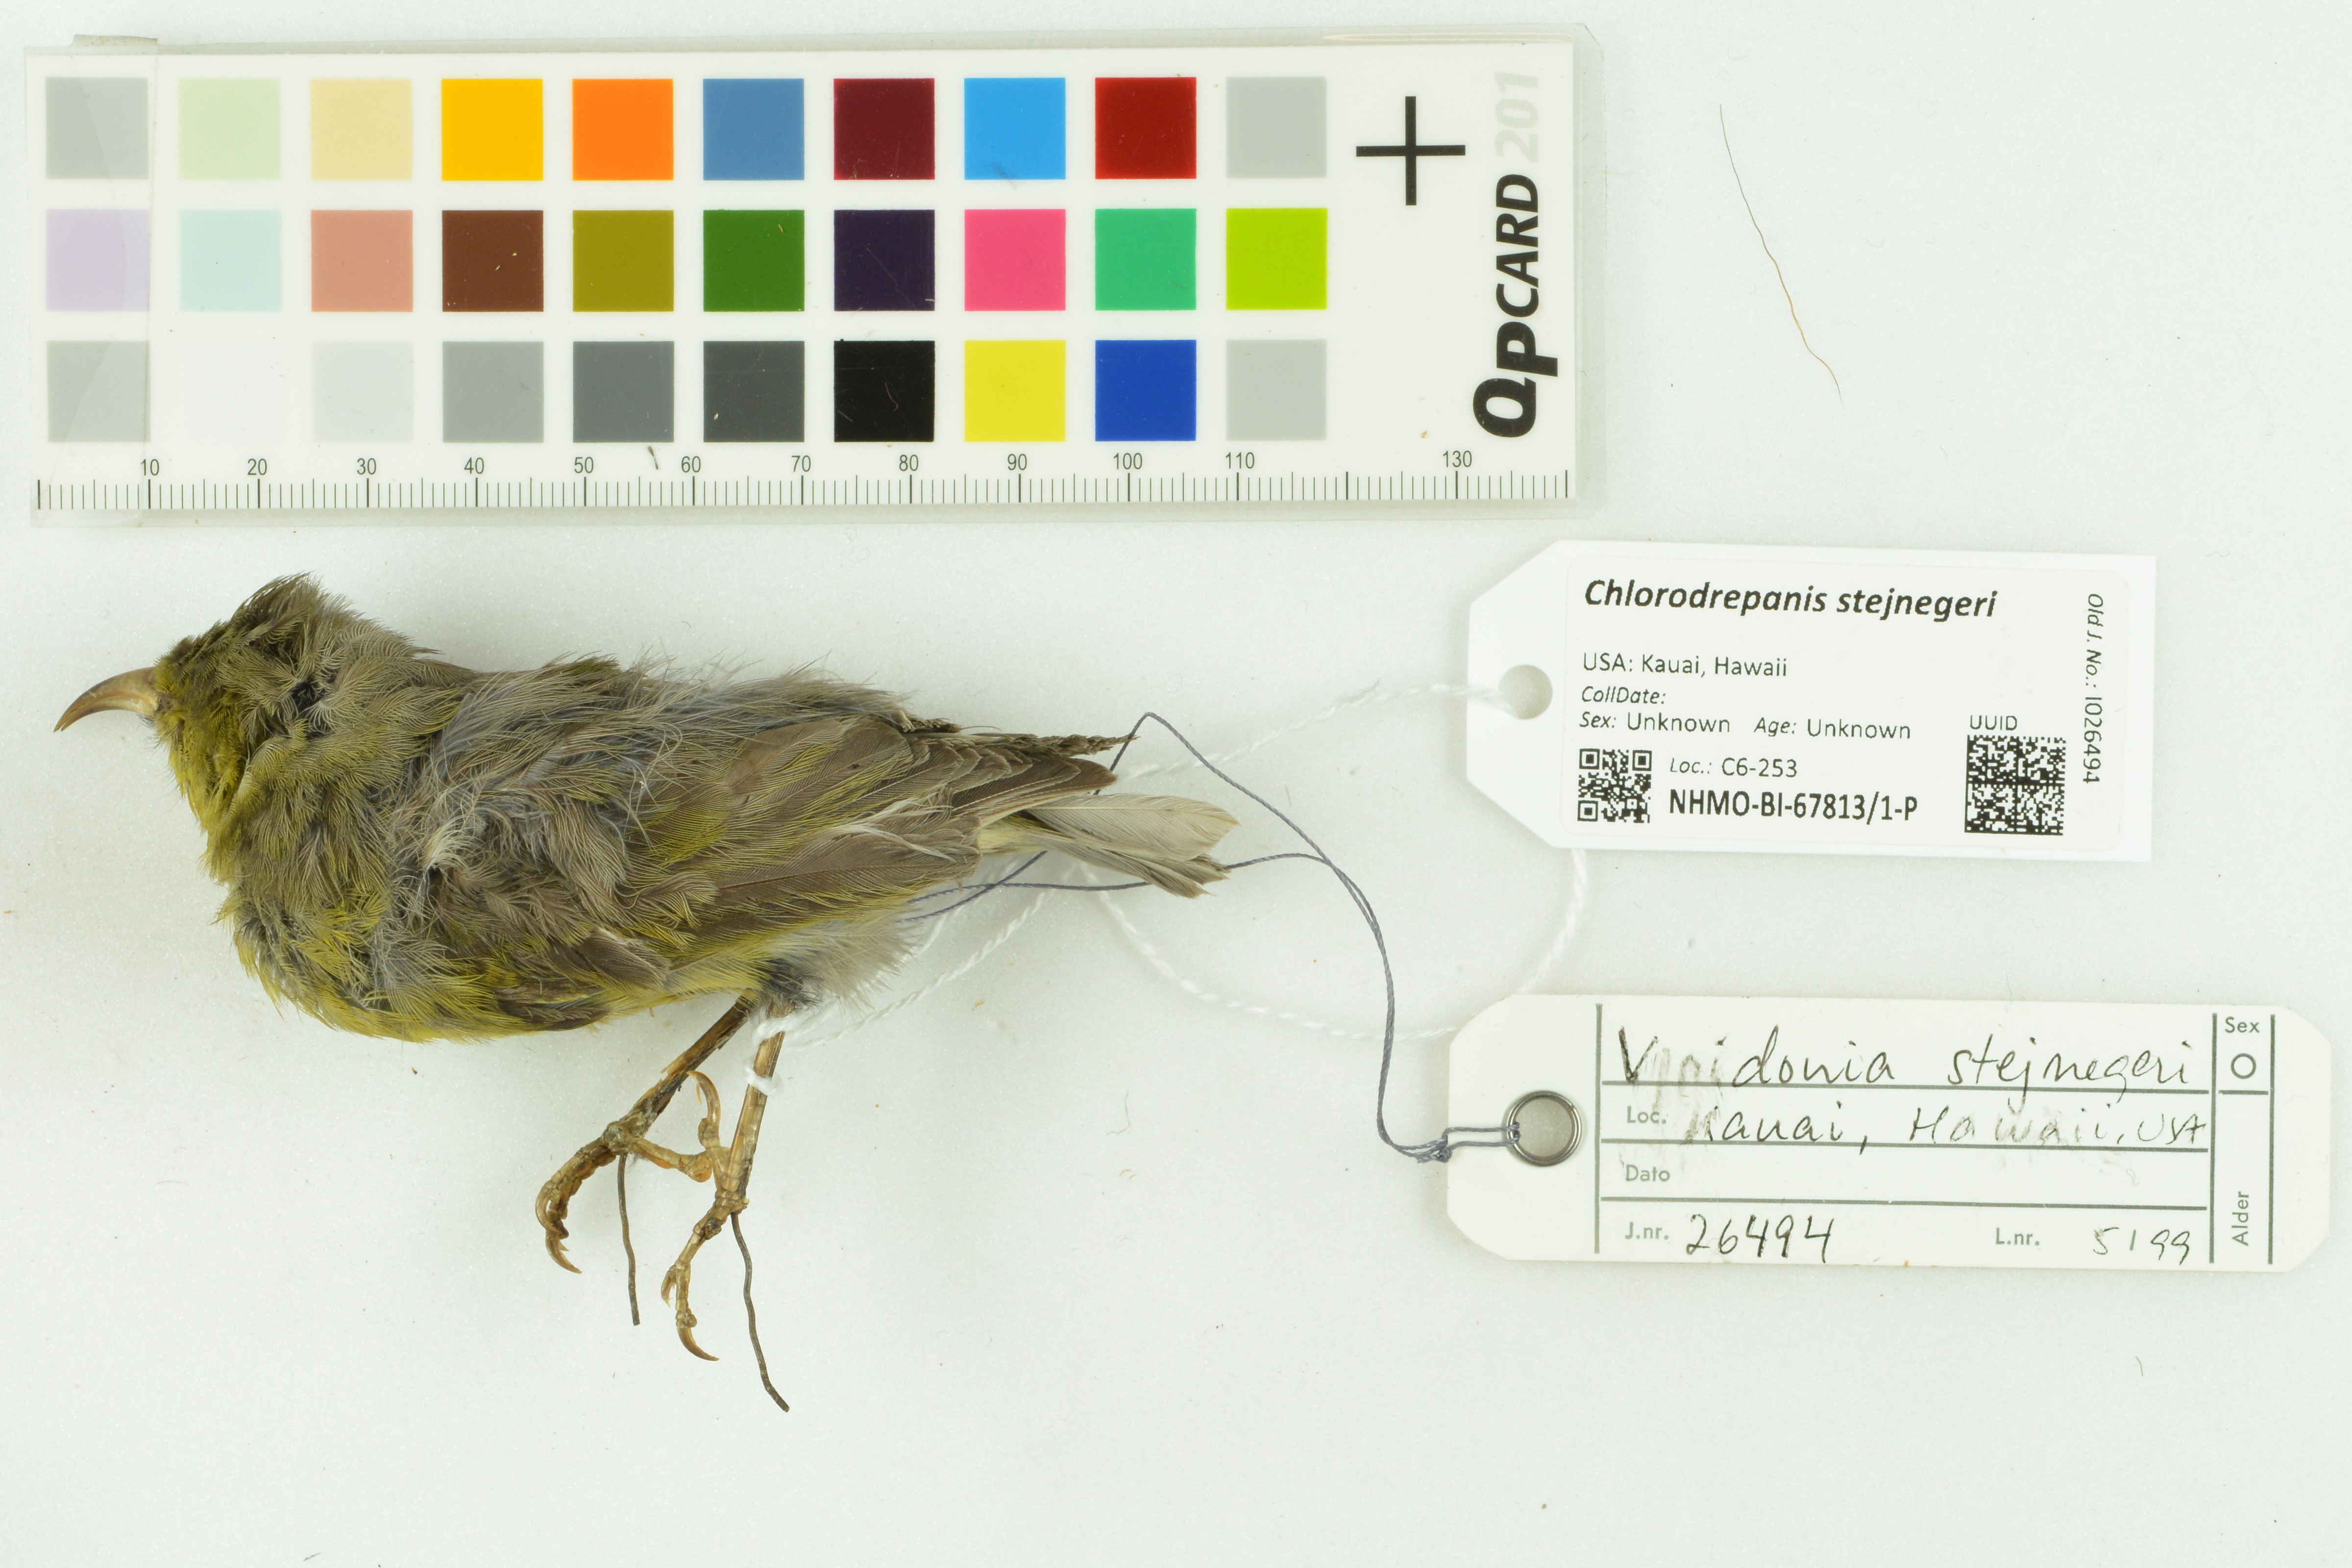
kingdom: Animalia
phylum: Chordata
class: Aves
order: Passeriformes
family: Fringillidae
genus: Chlorodrepanis
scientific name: Chlorodrepanis stejnegeri
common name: Kauai amakihi
